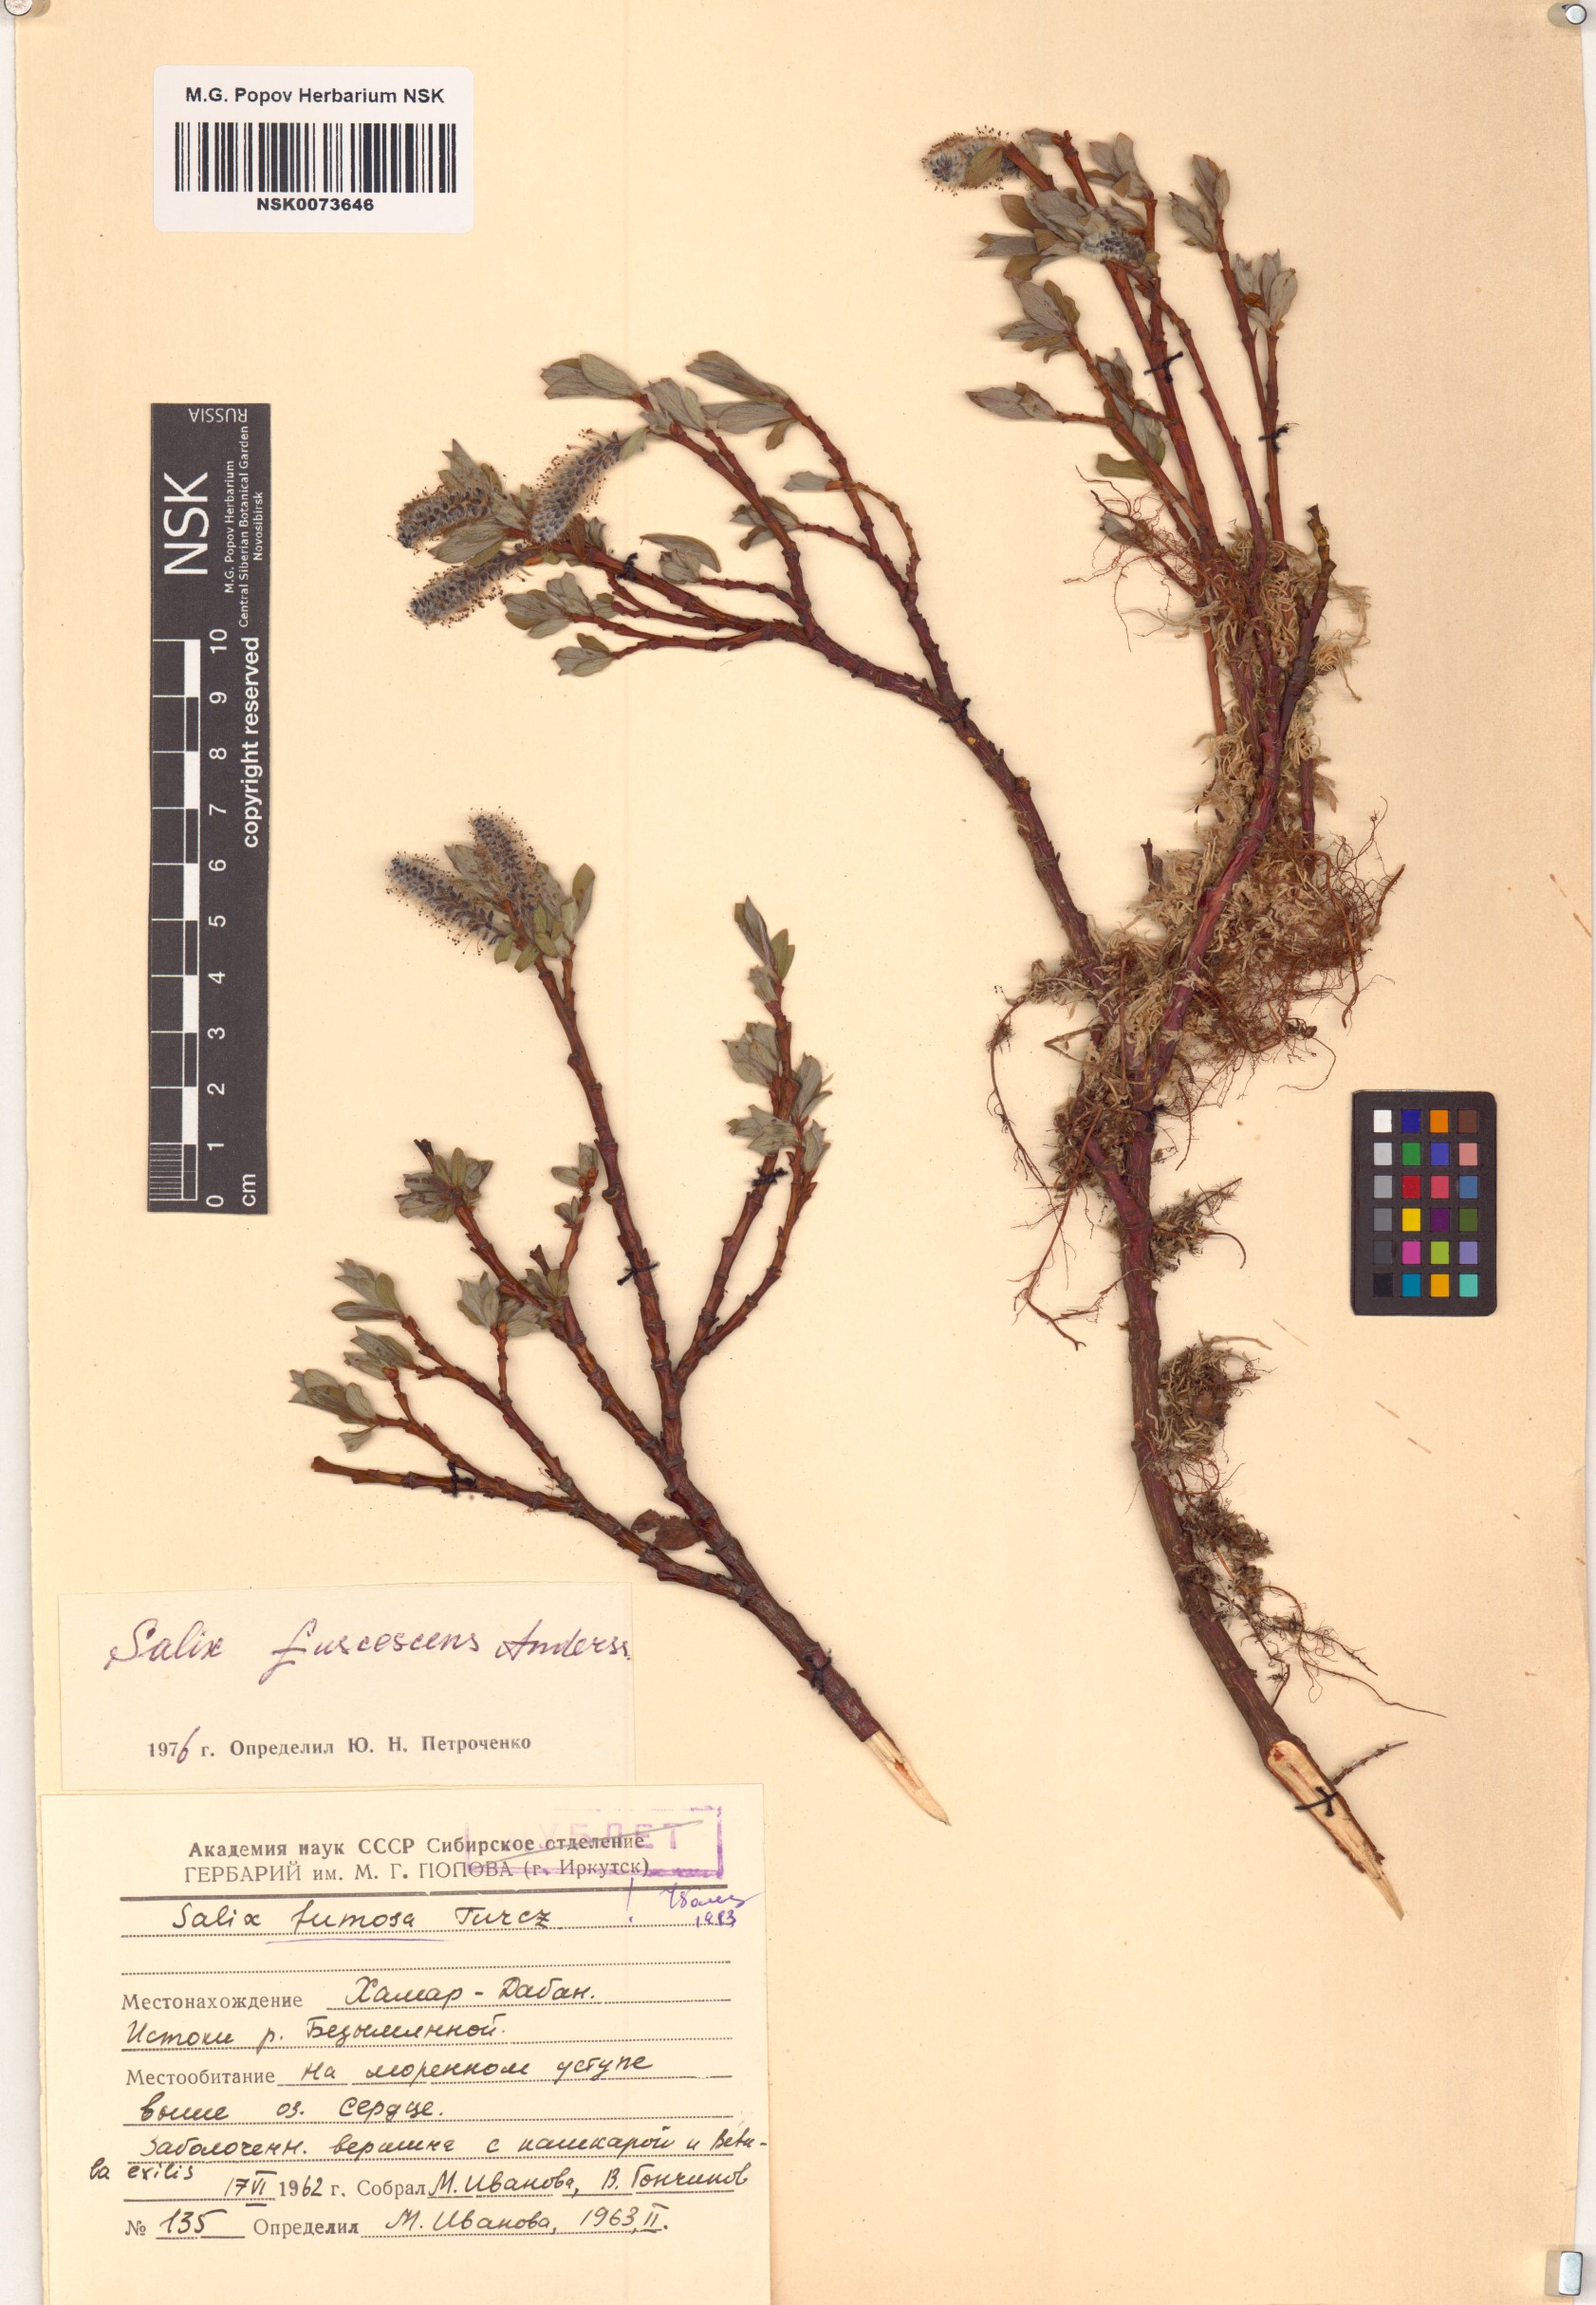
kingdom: Plantae
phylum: Tracheophyta
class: Magnoliopsida
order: Malpighiales
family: Salicaceae
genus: Salix
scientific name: Salix fuscescens
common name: Brownish willow
